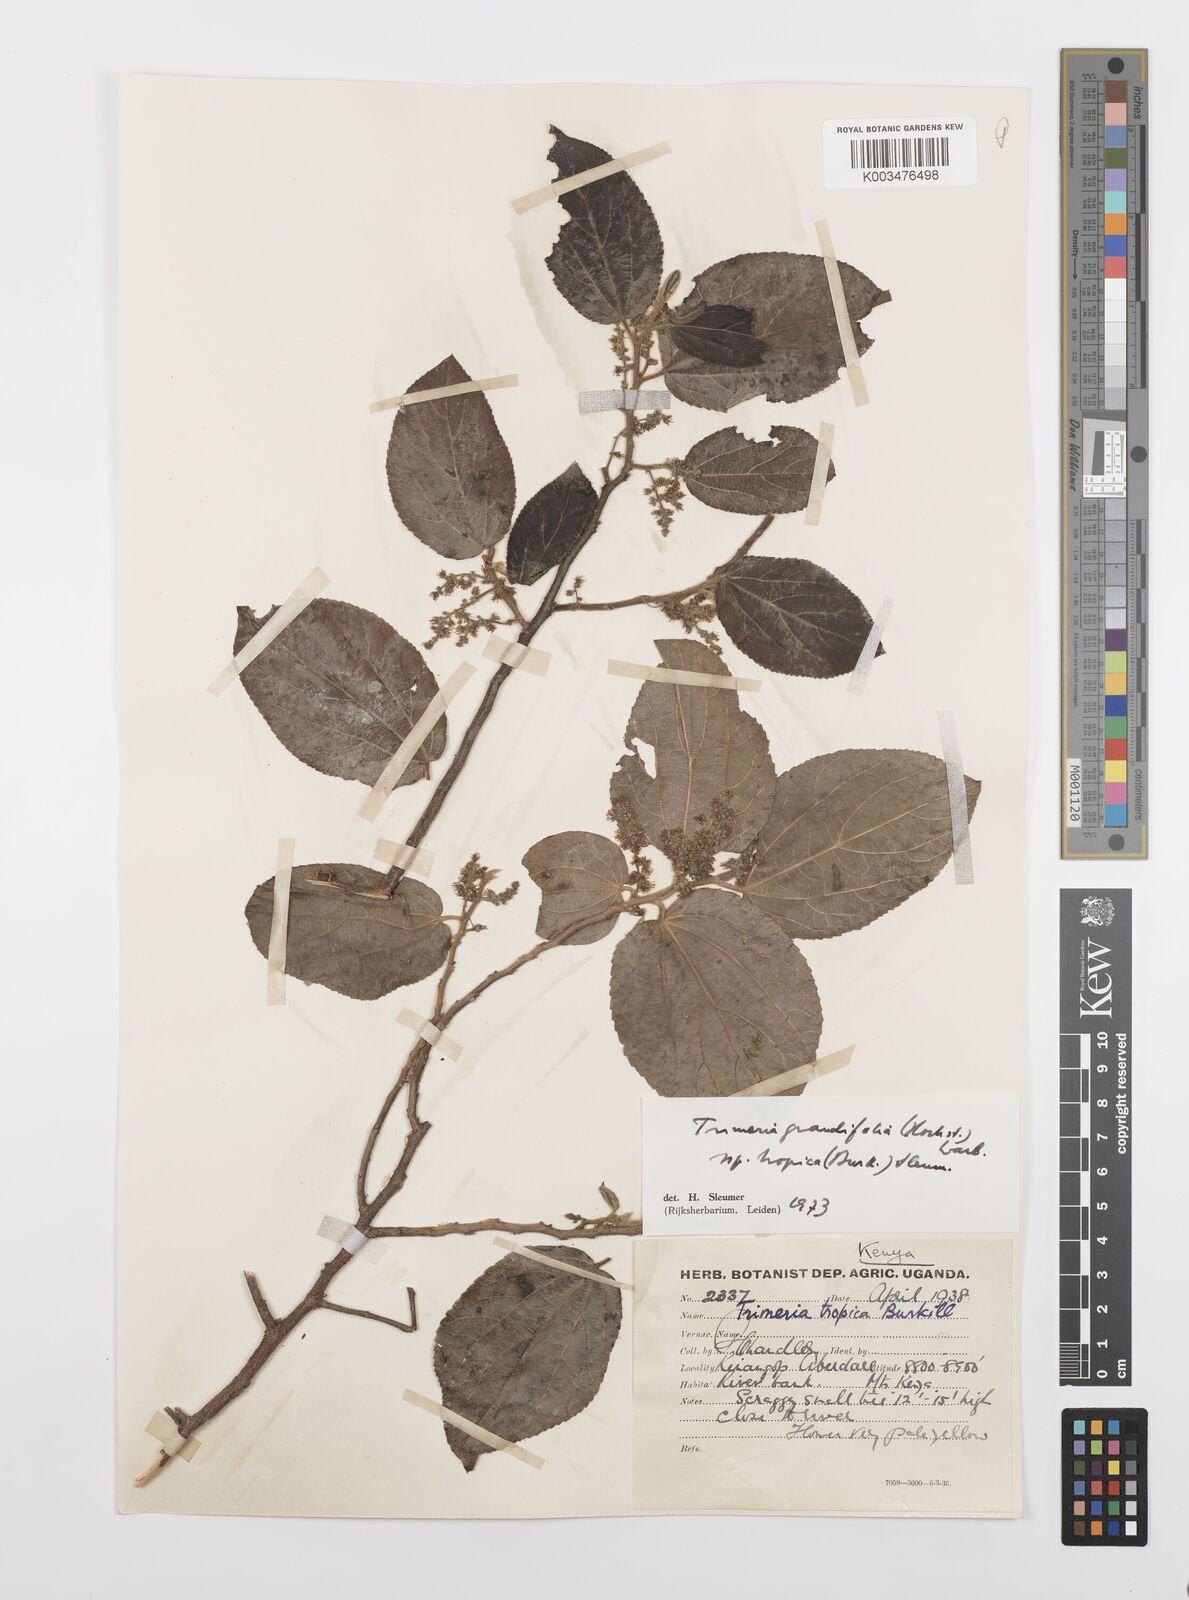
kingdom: Plantae
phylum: Tracheophyta
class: Magnoliopsida
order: Malpighiales
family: Salicaceae
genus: Trimeria
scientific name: Trimeria grandifolia
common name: Wild mulberry
